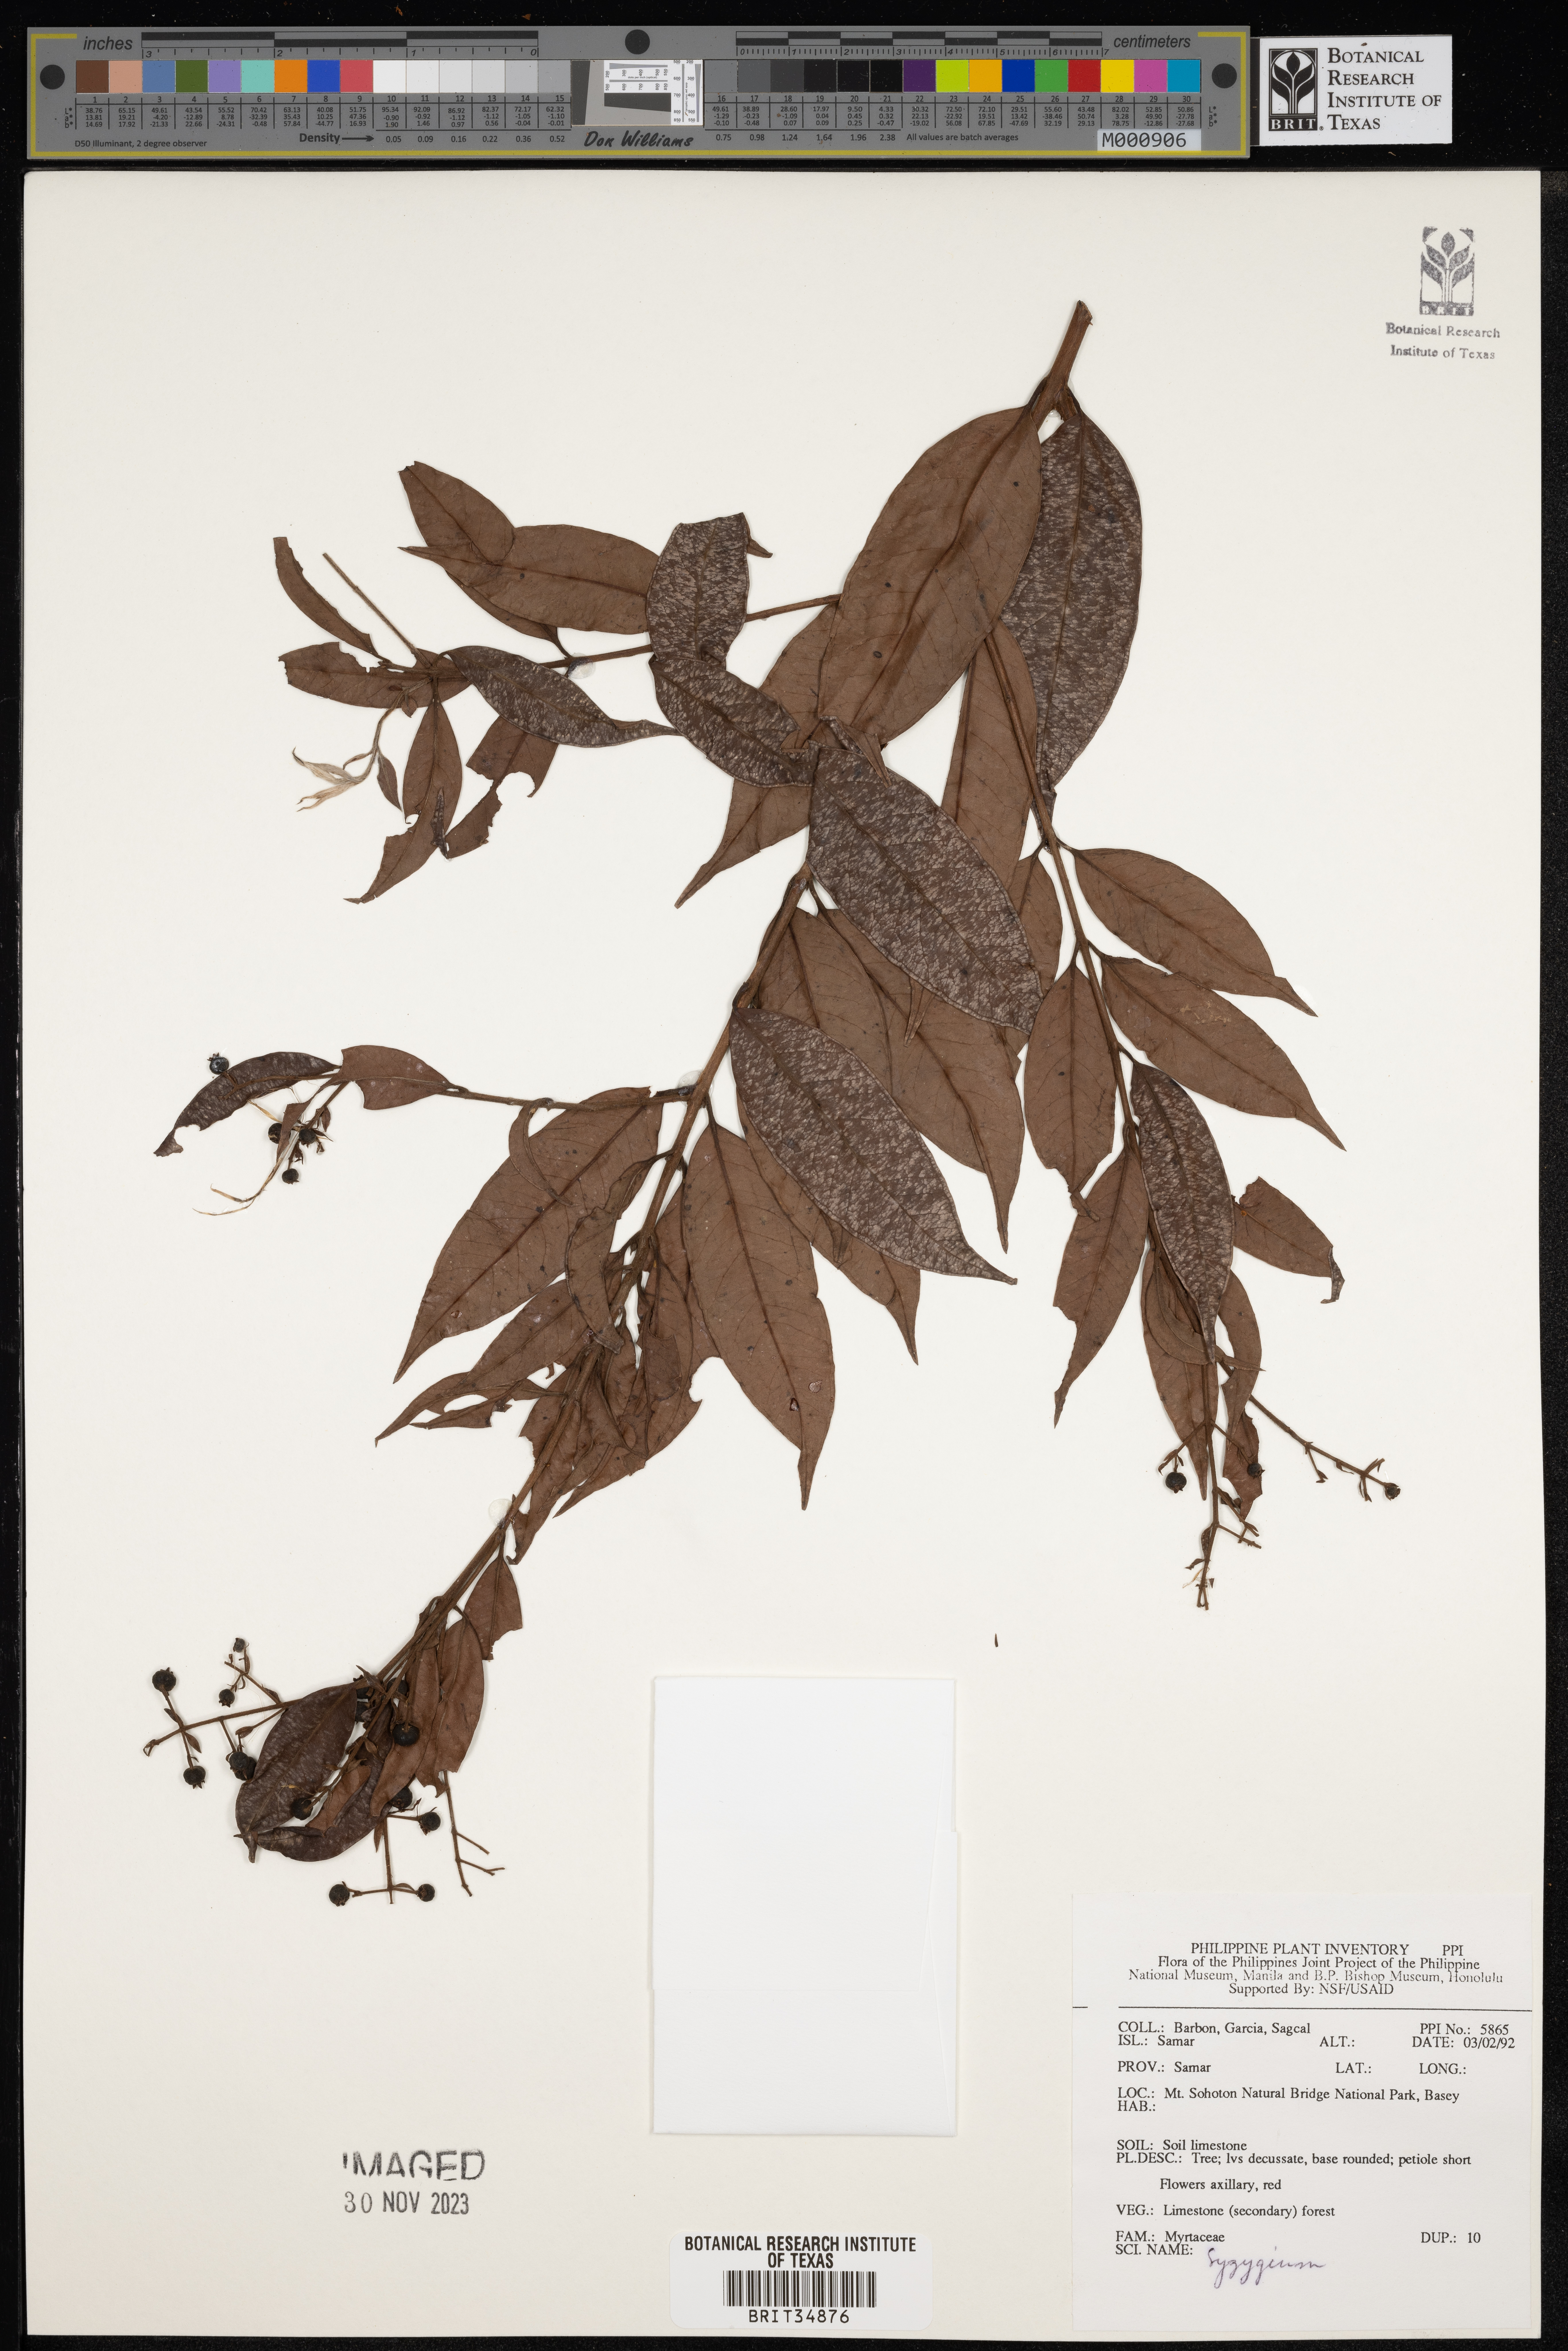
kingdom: Plantae
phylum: Tracheophyta
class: Magnoliopsida
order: Myrtales
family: Myrtaceae
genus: Syzygium
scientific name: Syzygium
